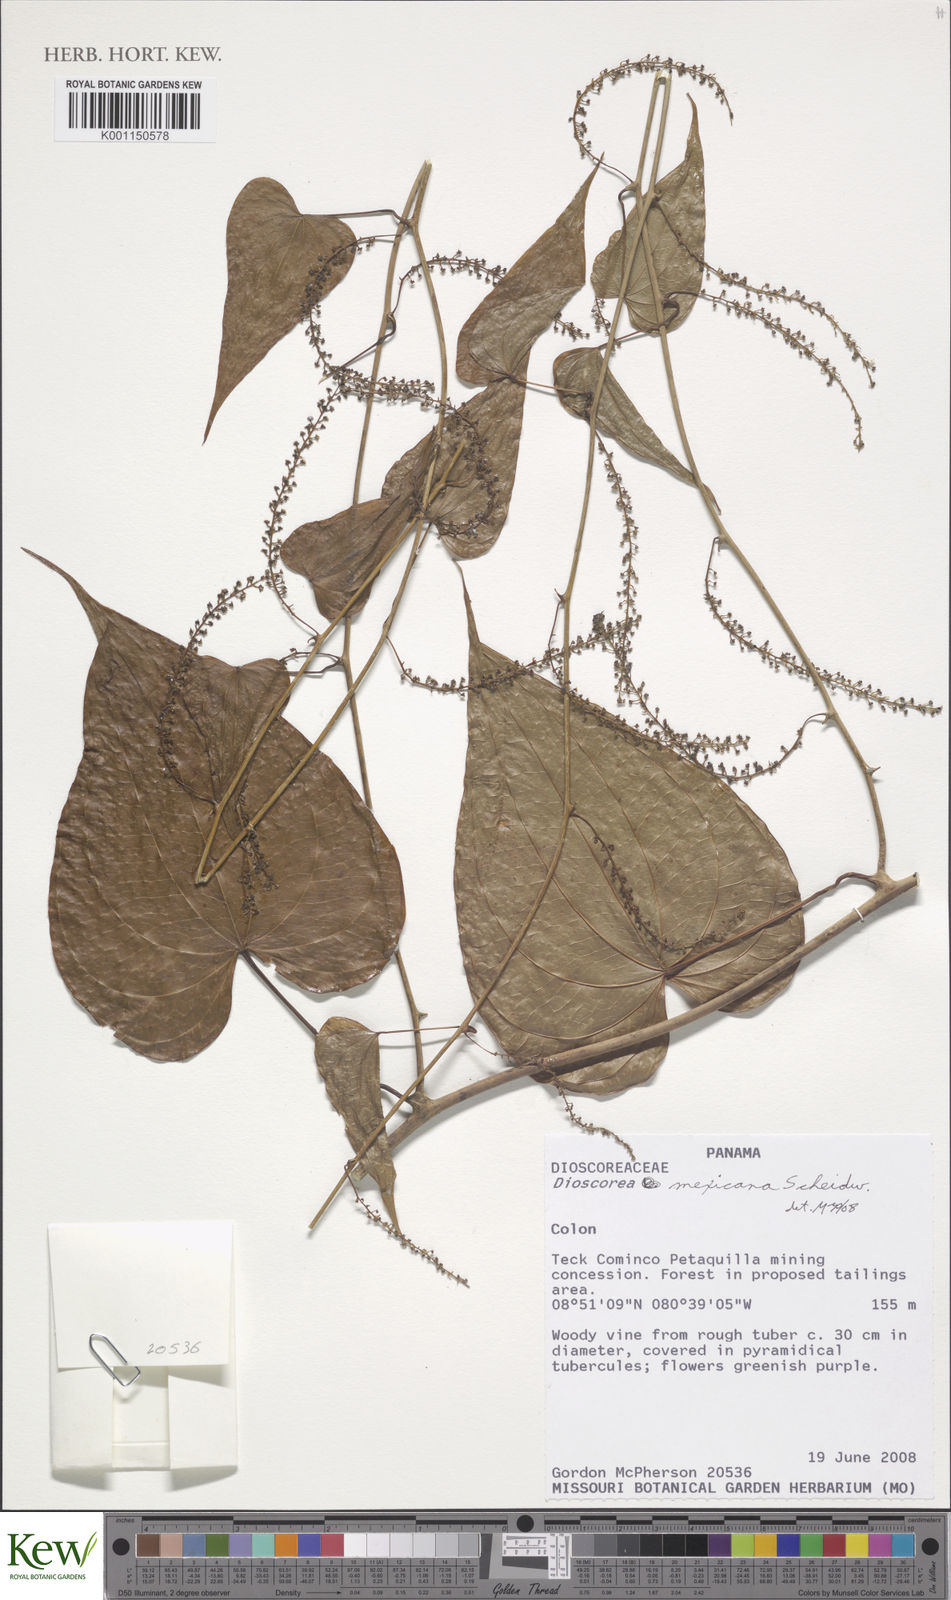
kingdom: Plantae
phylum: Tracheophyta
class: Liliopsida
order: Dioscoreales
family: Dioscoreaceae
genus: Dioscorea
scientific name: Dioscorea mexicana
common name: Mexican yam
